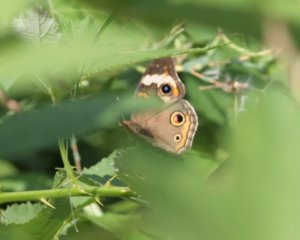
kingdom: Animalia
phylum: Arthropoda
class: Insecta
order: Lepidoptera
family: Nymphalidae
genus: Junonia
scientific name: Junonia coenia
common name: Common Buckeye
